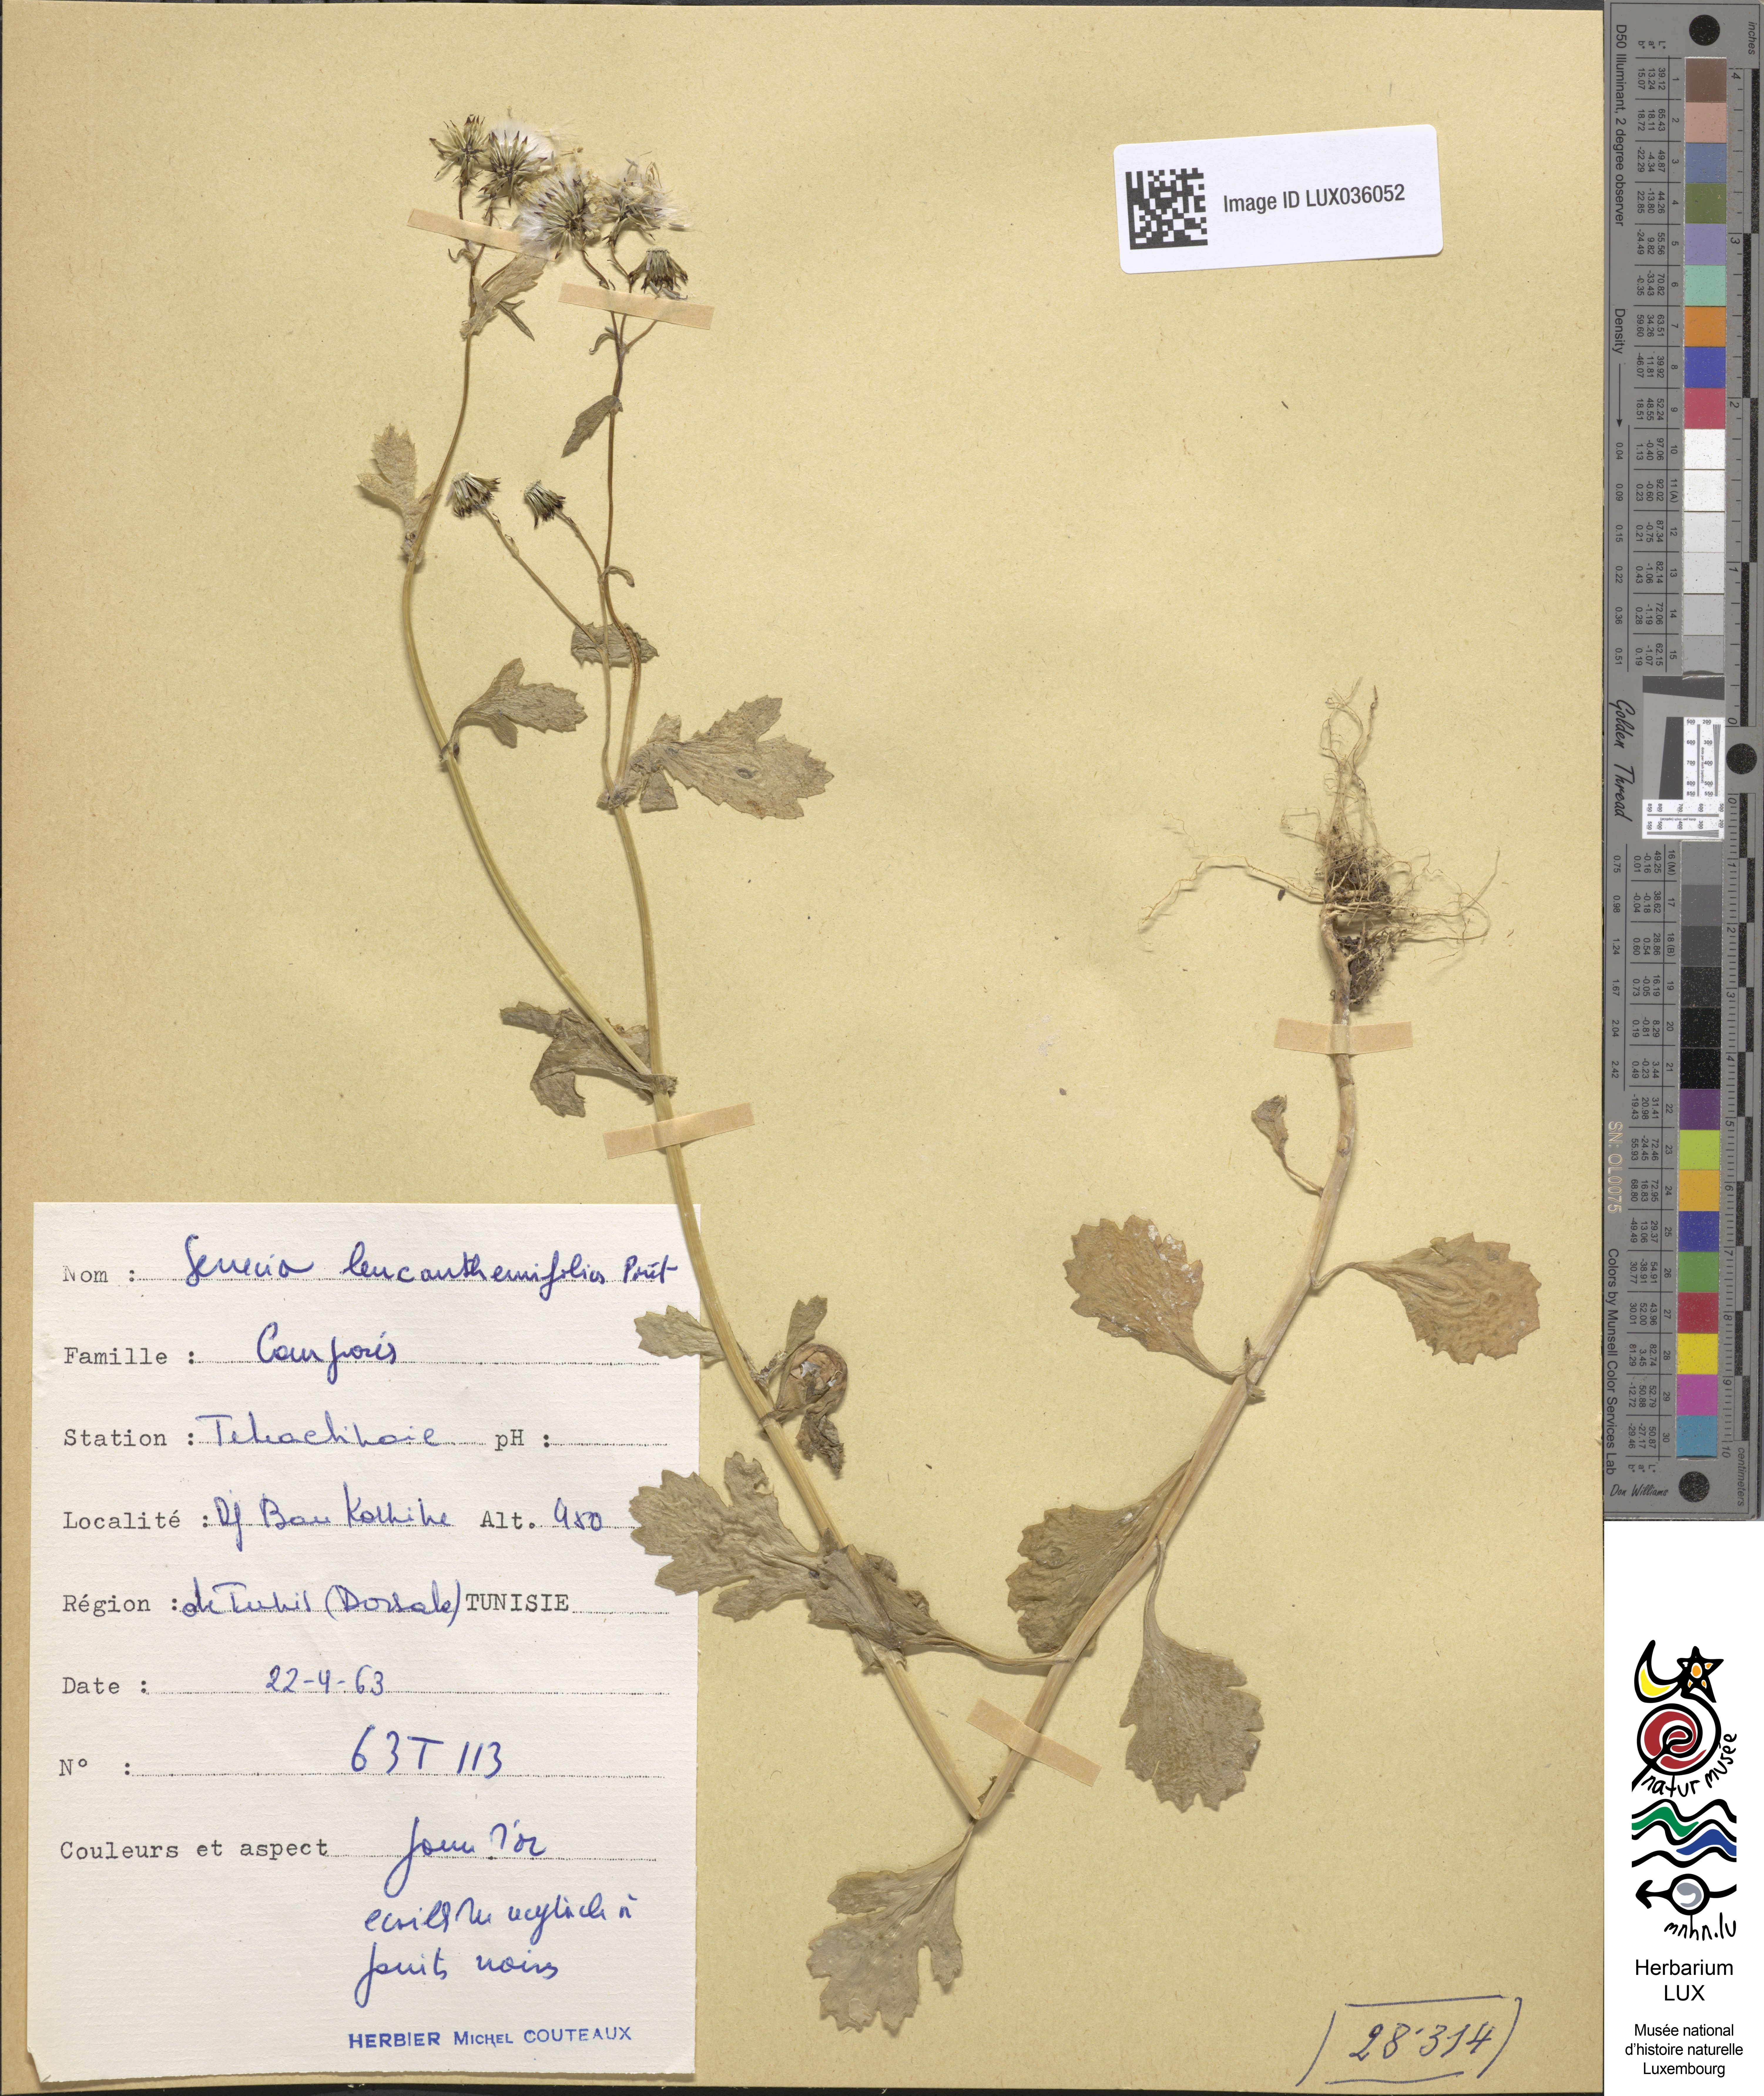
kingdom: Plantae
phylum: Tracheophyta
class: Magnoliopsida
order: Asterales
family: Asteraceae
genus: Senecio
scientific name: Senecio leucanthemifolius
